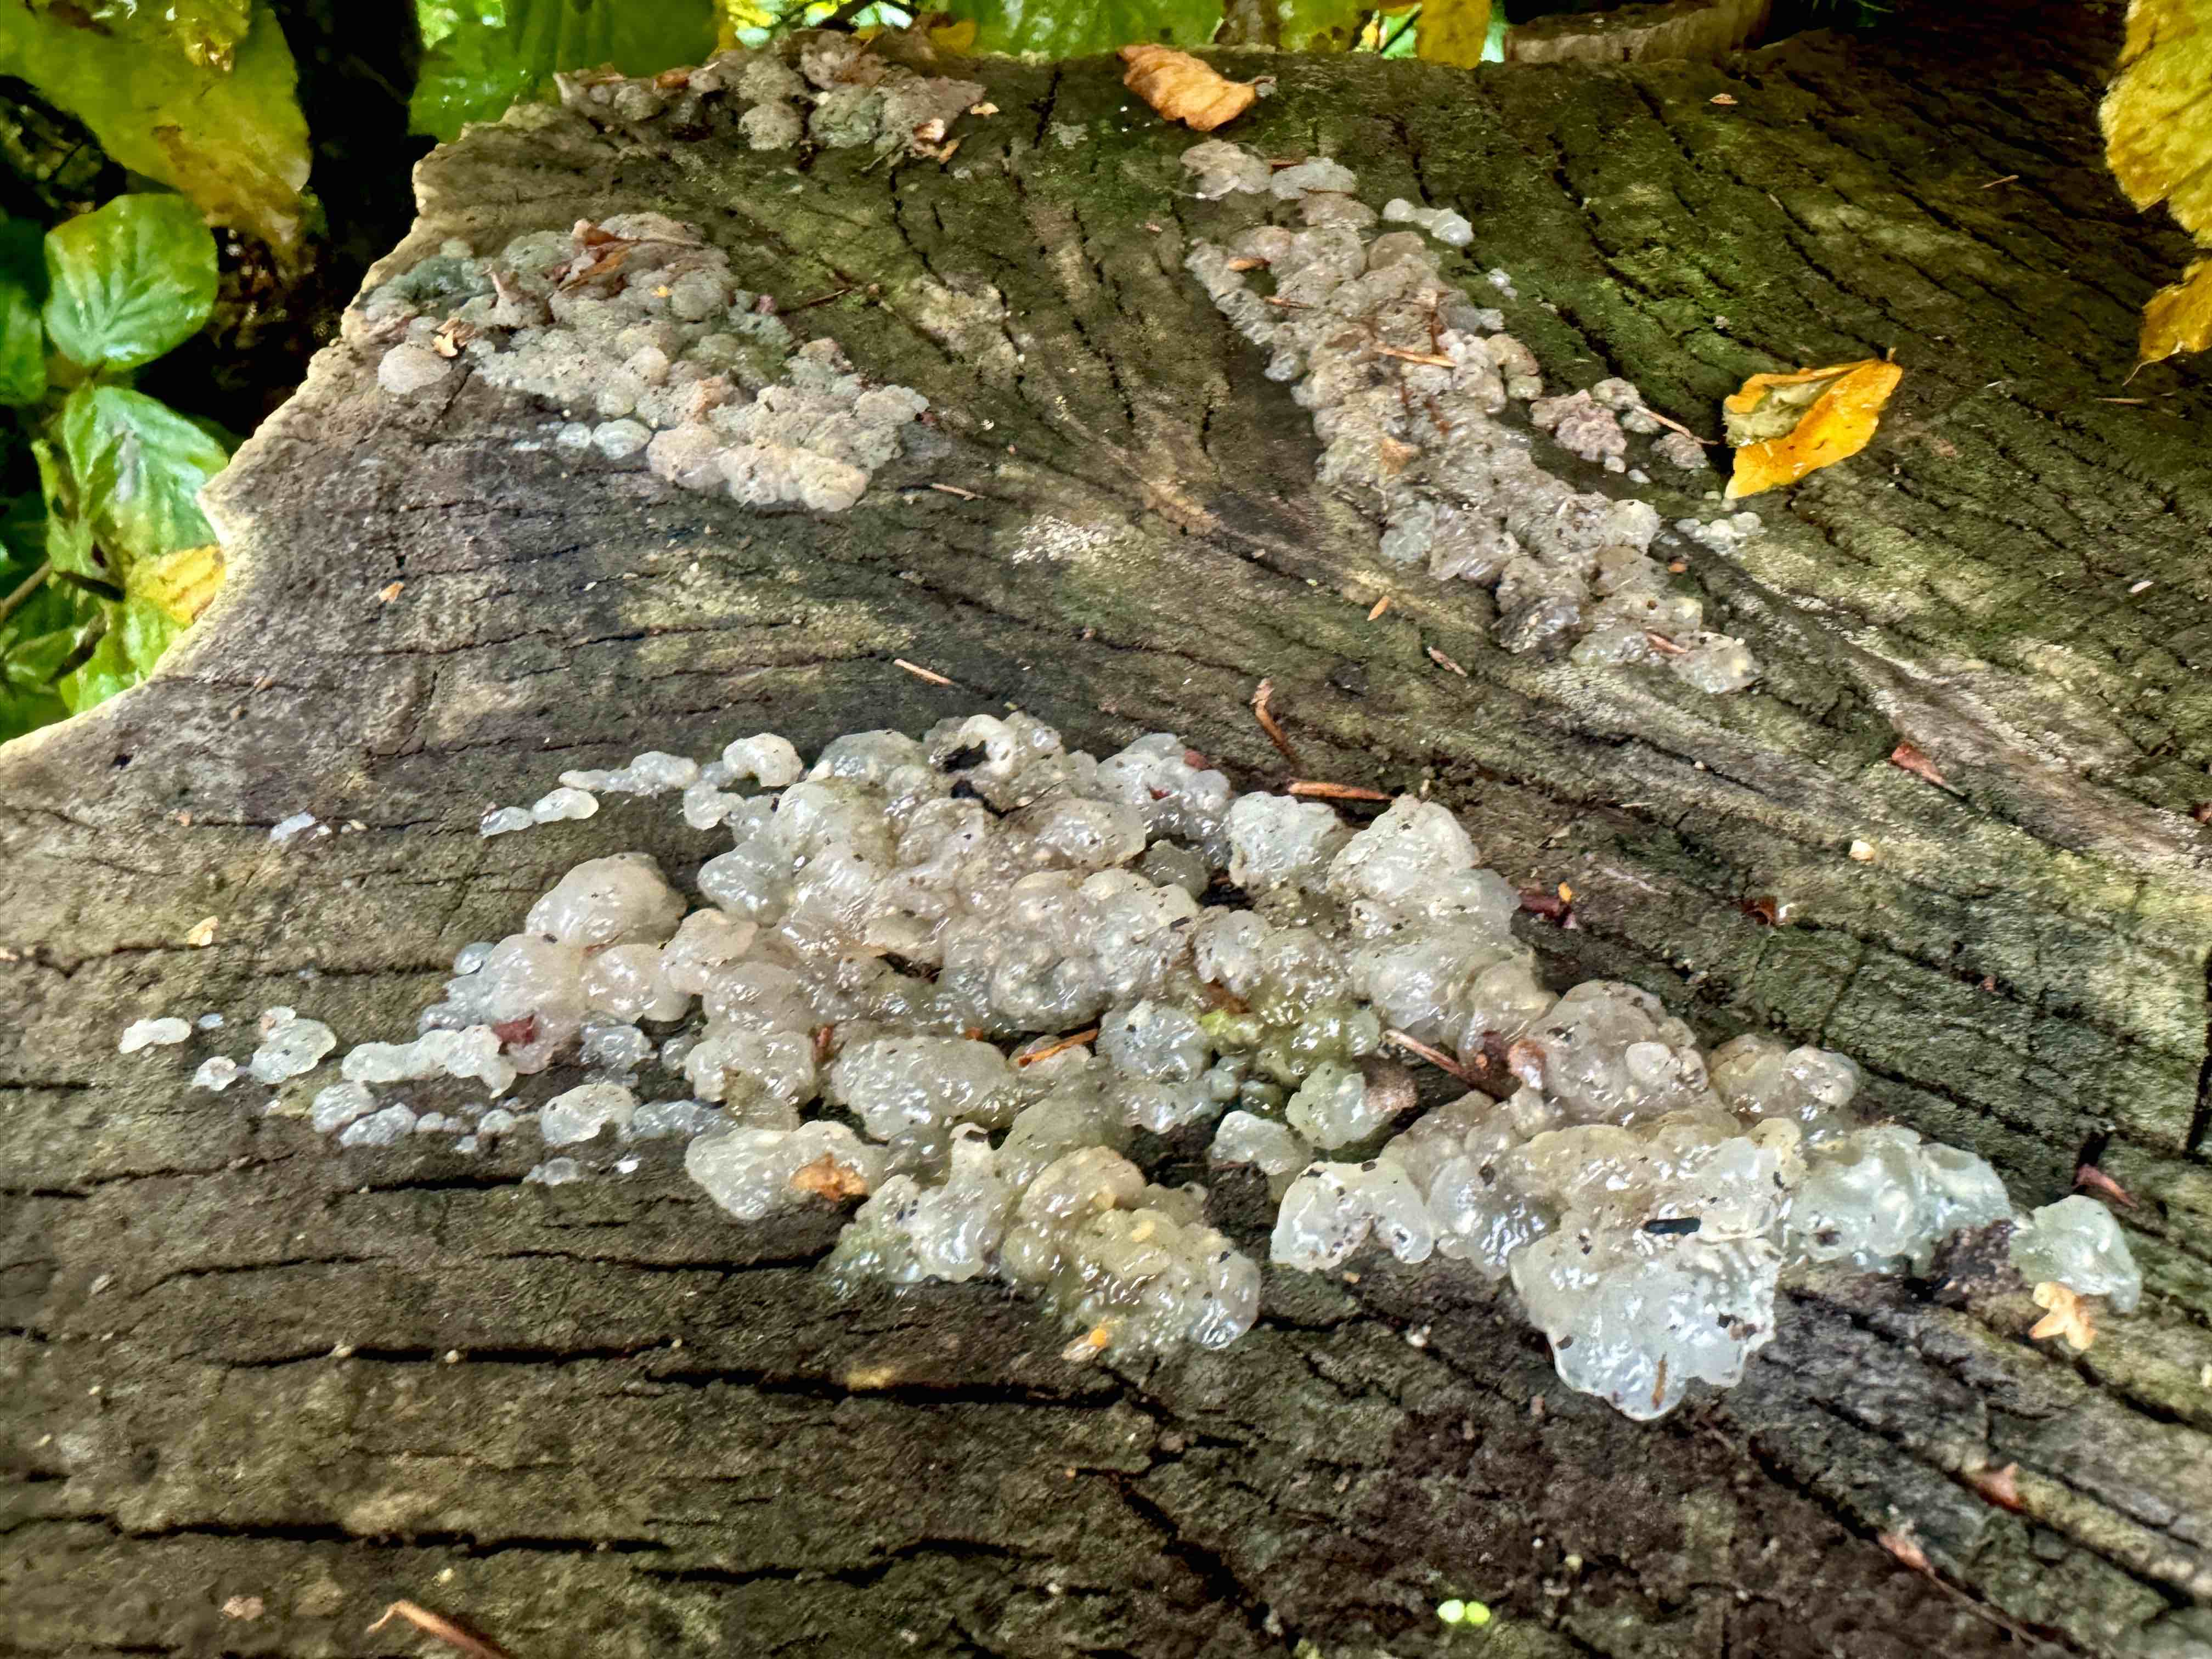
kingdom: Fungi
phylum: Basidiomycota
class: Agaricomycetes
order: Auriculariales
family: Hyaloriaceae
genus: Myxarium
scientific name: Myxarium nucleatum
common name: klar bævretop
